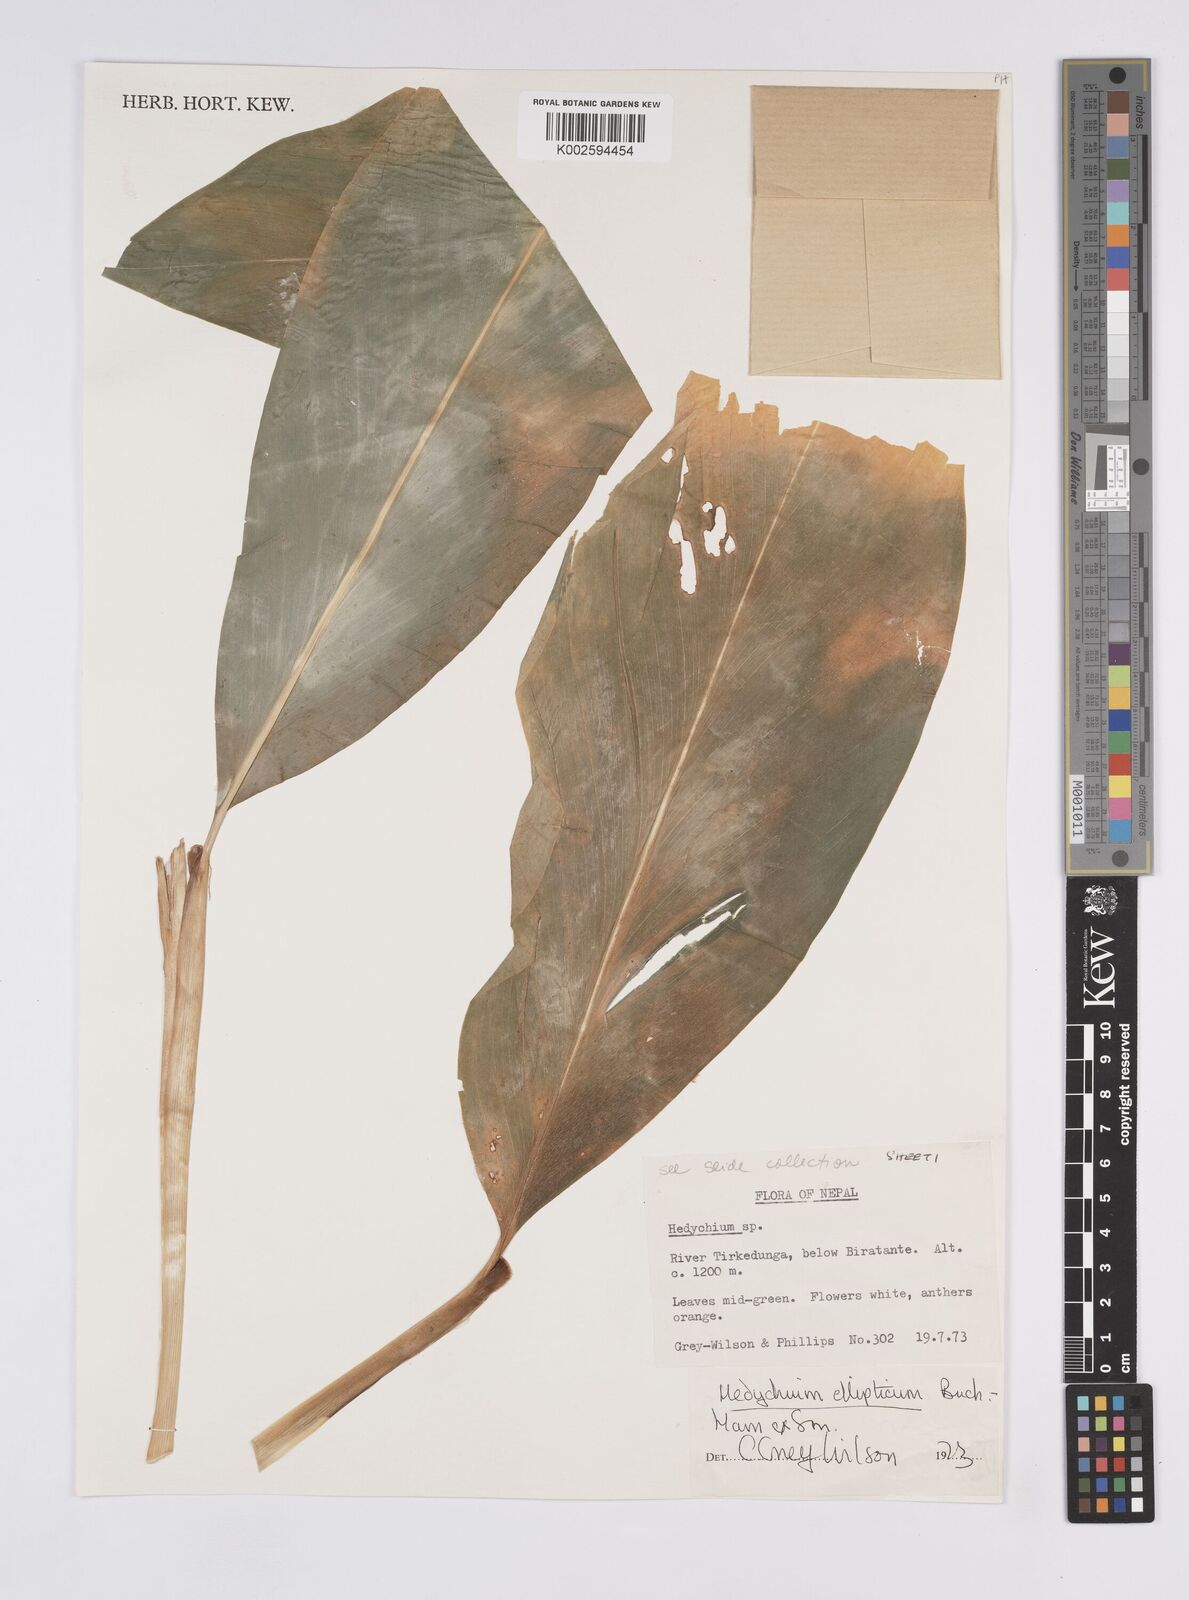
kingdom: Plantae
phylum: Tracheophyta
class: Liliopsida
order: Zingiberales
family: Zingiberaceae
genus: Hedychium
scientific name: Hedychium ellipticum
